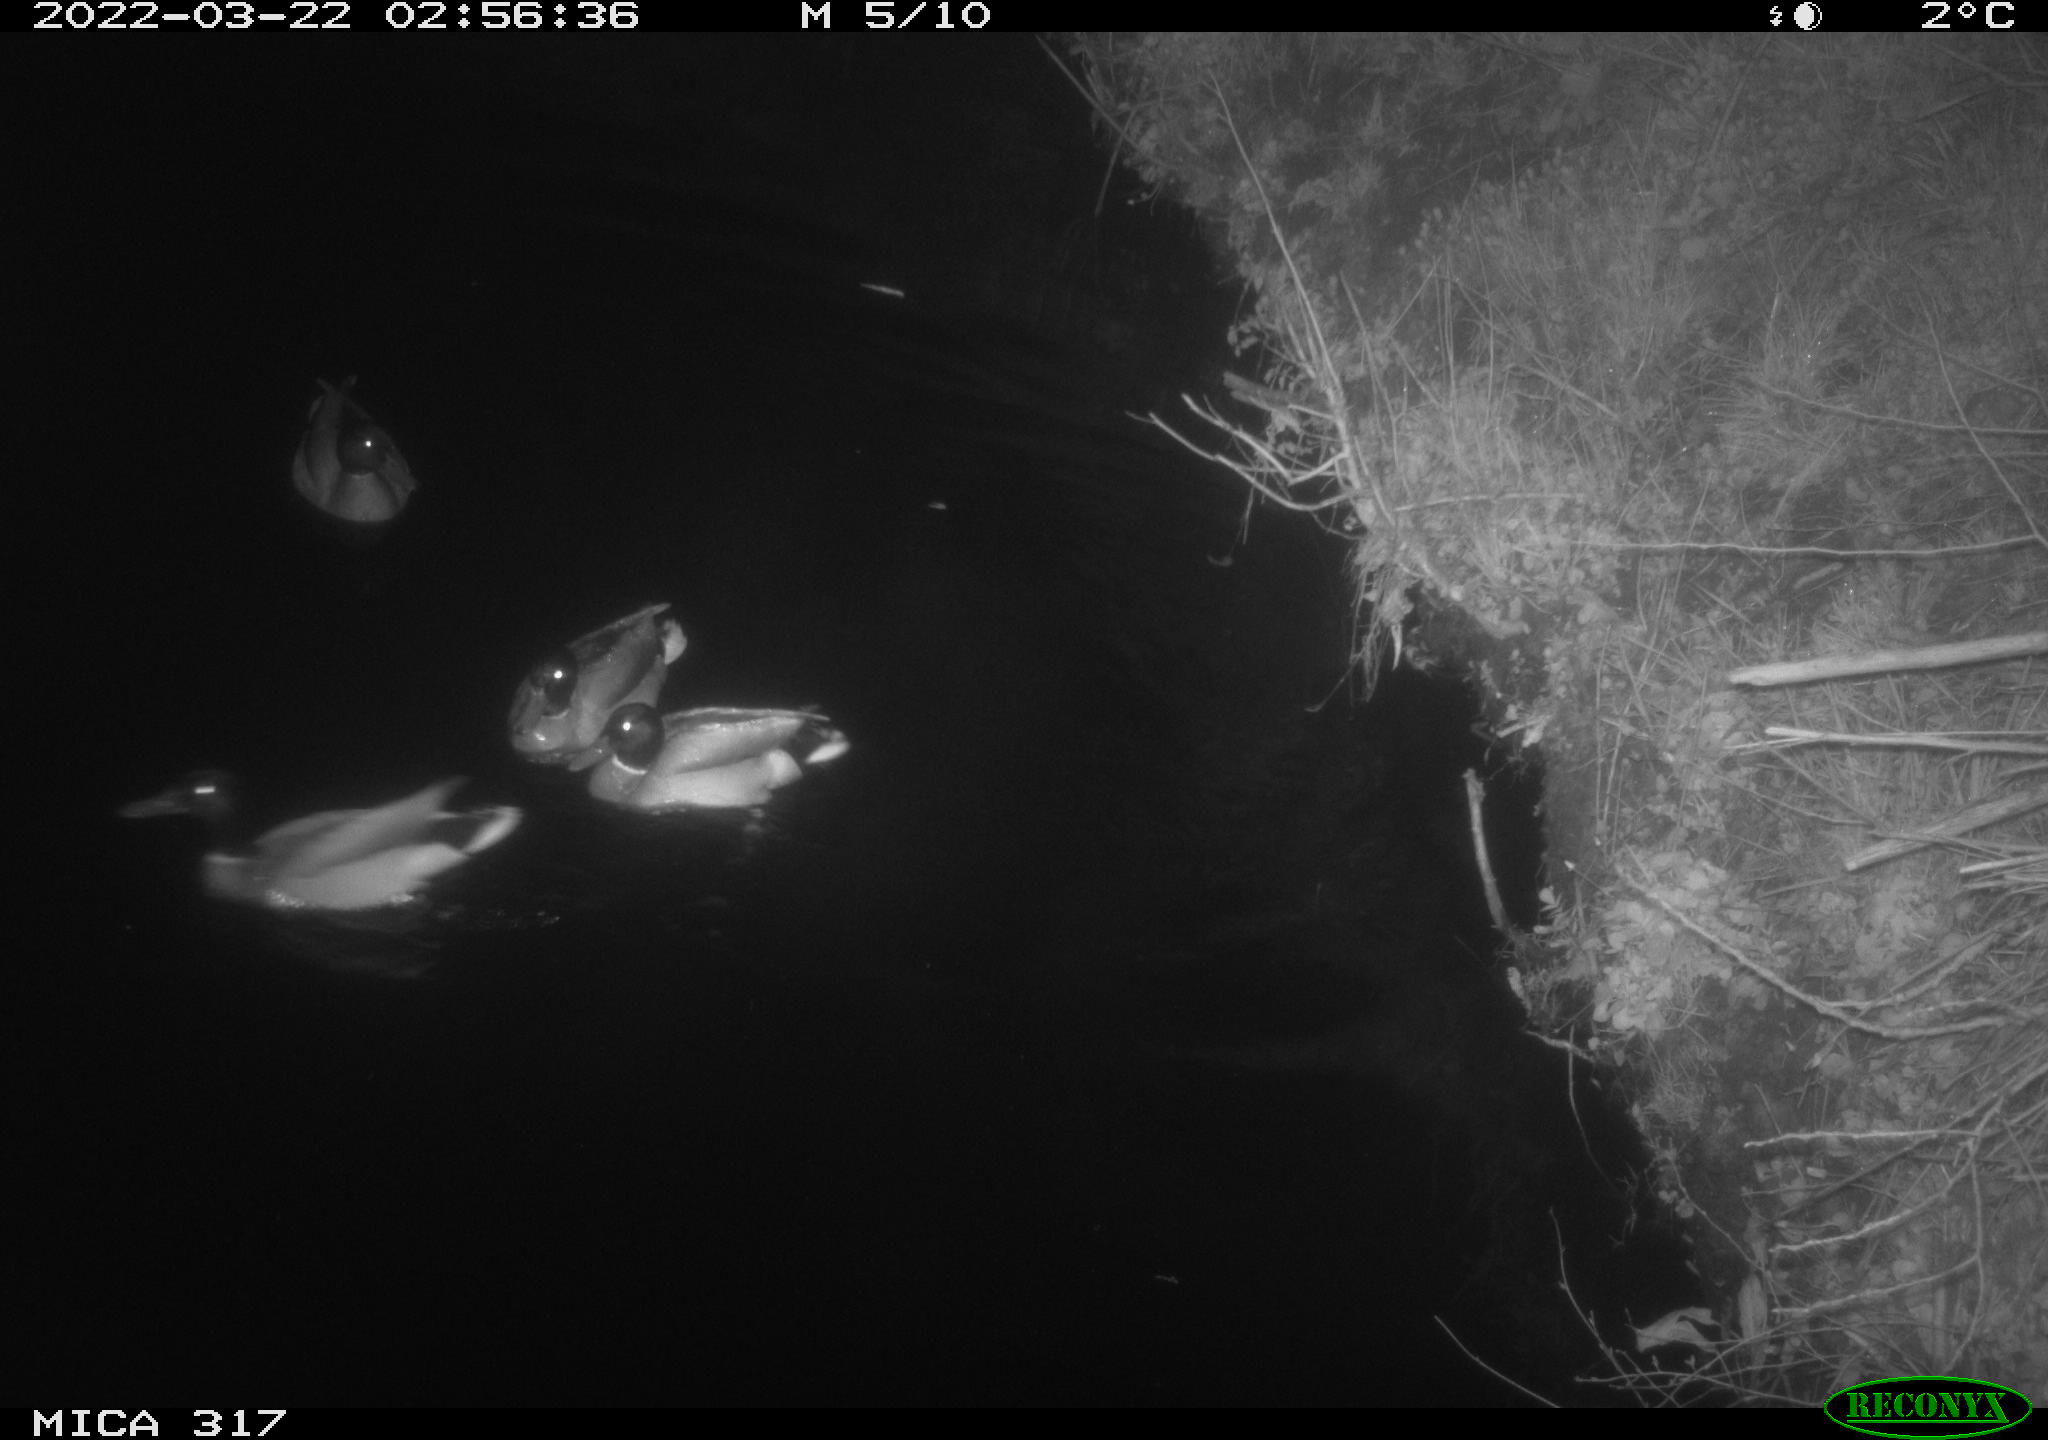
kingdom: Animalia
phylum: Chordata
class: Aves
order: Anseriformes
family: Anatidae
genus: Anas
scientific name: Anas platyrhynchos
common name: Mallard
